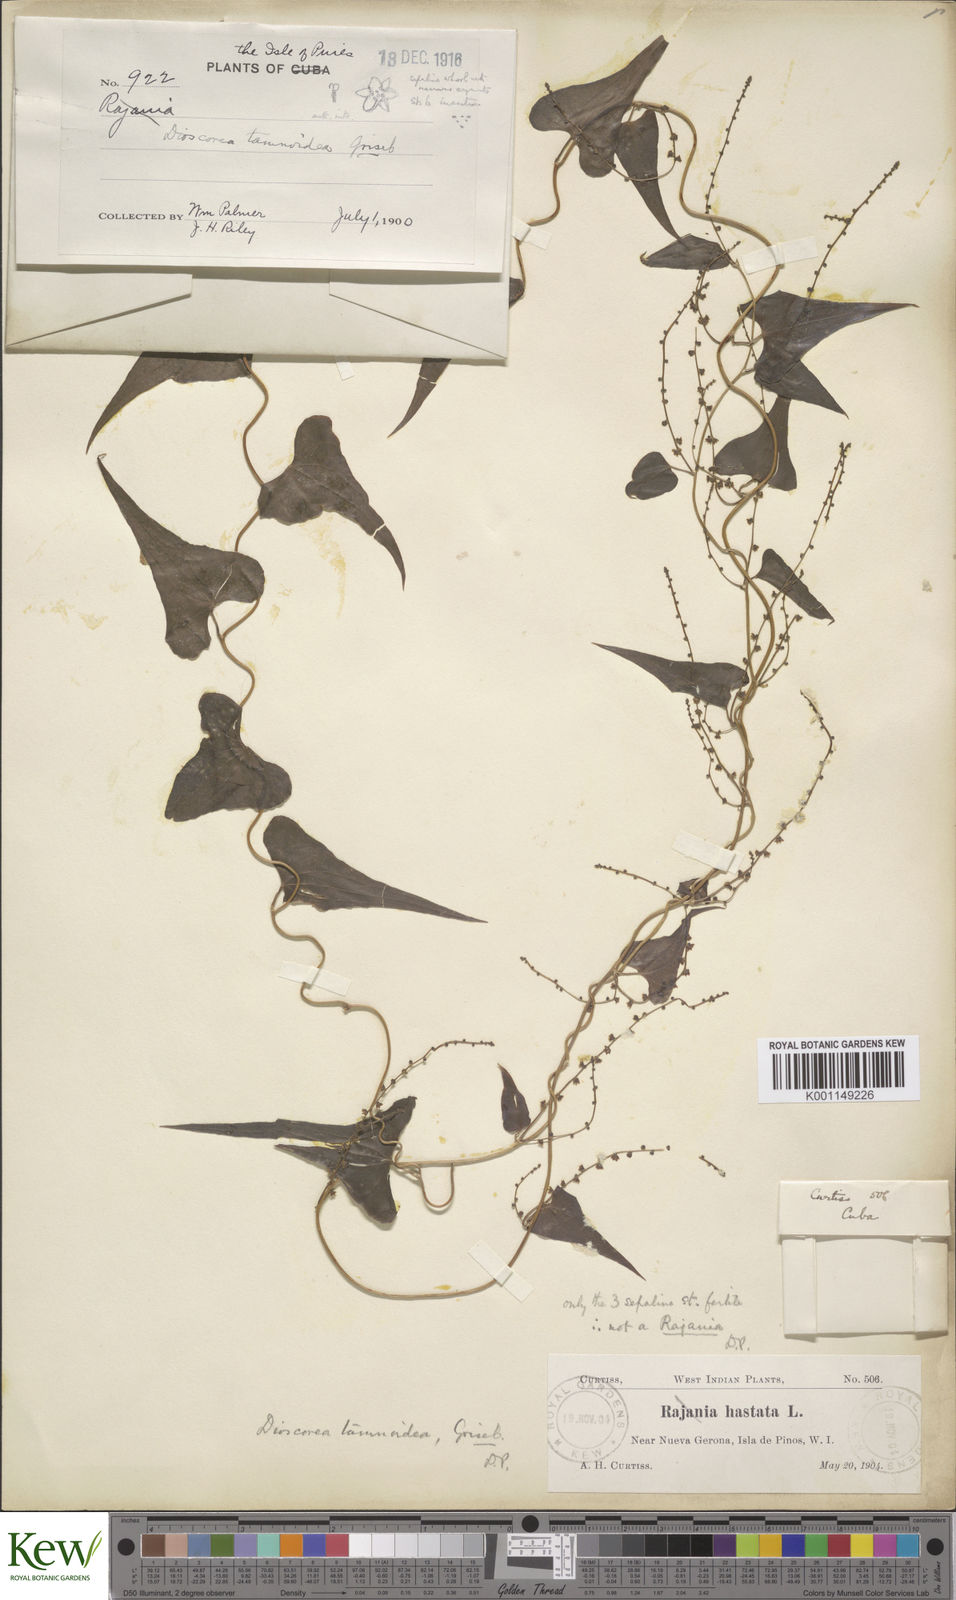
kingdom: Plantae
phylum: Tracheophyta
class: Liliopsida
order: Dioscoreales
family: Dioscoreaceae
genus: Dioscorea
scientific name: Dioscorea tamoidea
